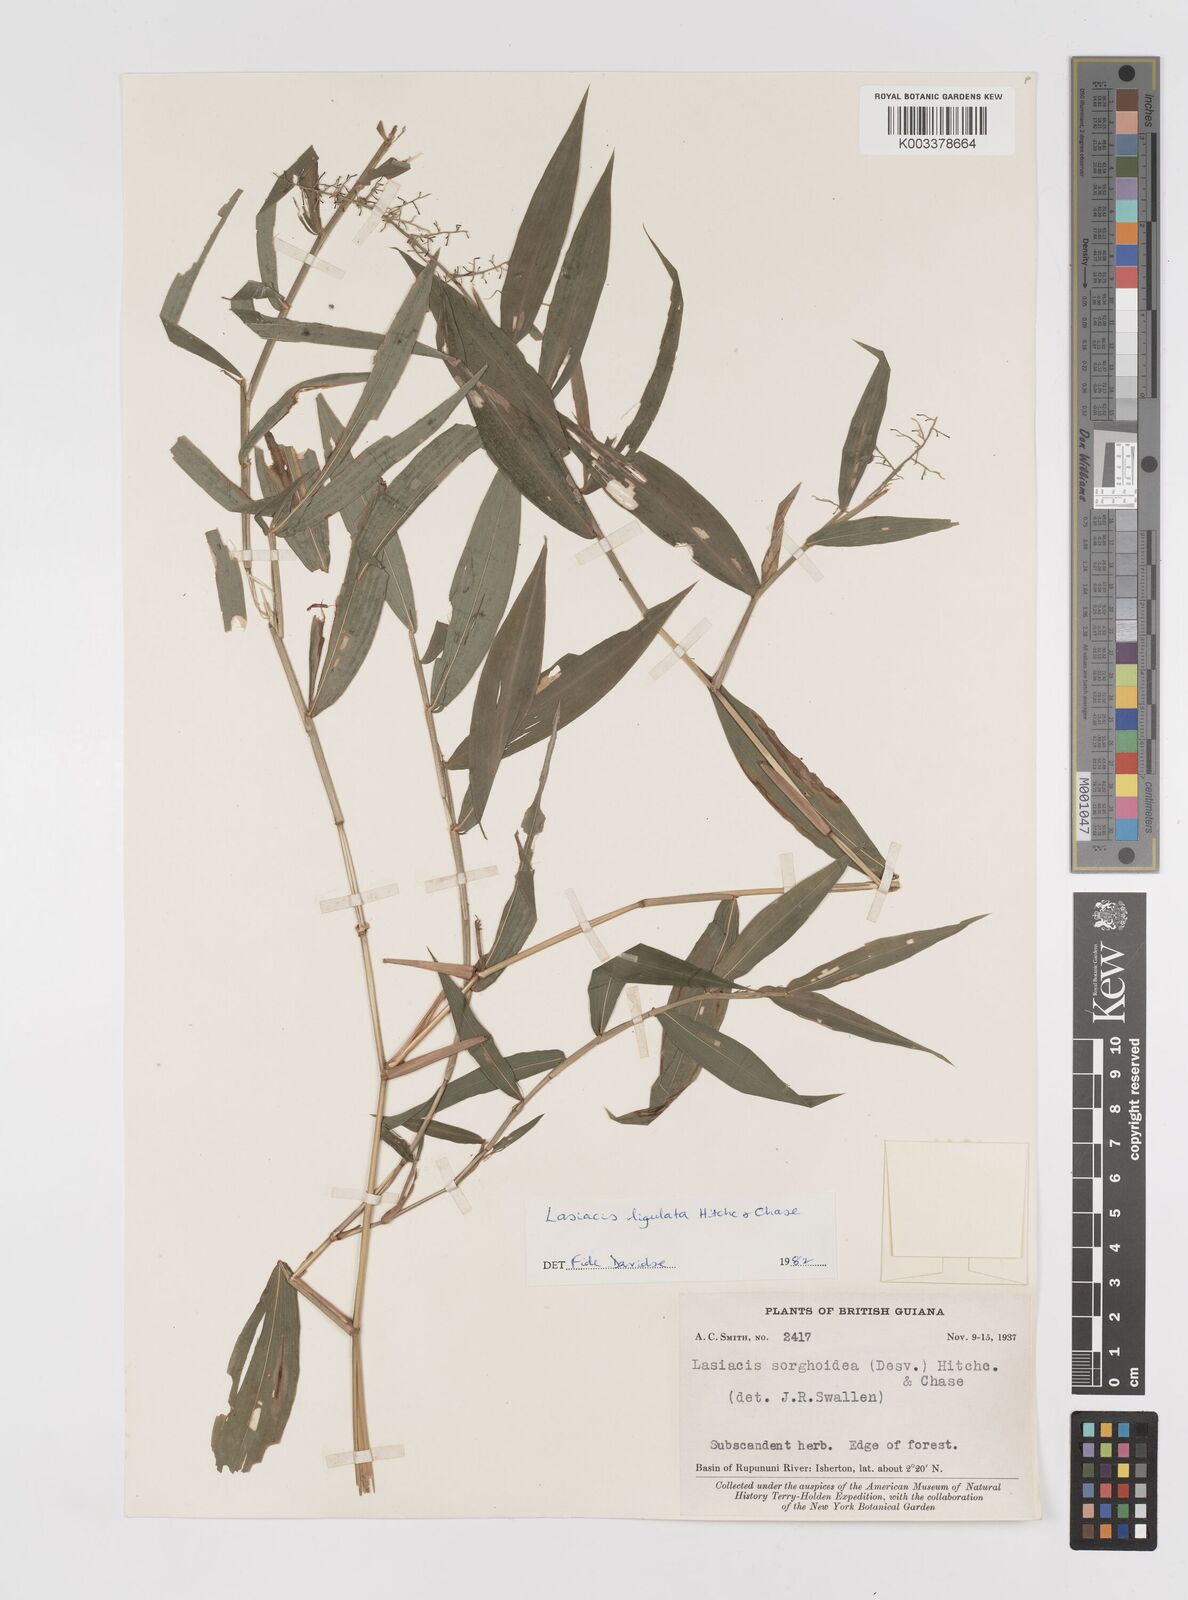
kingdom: Plantae
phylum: Tracheophyta
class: Liliopsida
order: Poales
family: Poaceae
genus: Lasiacis
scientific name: Lasiacis ligulata
